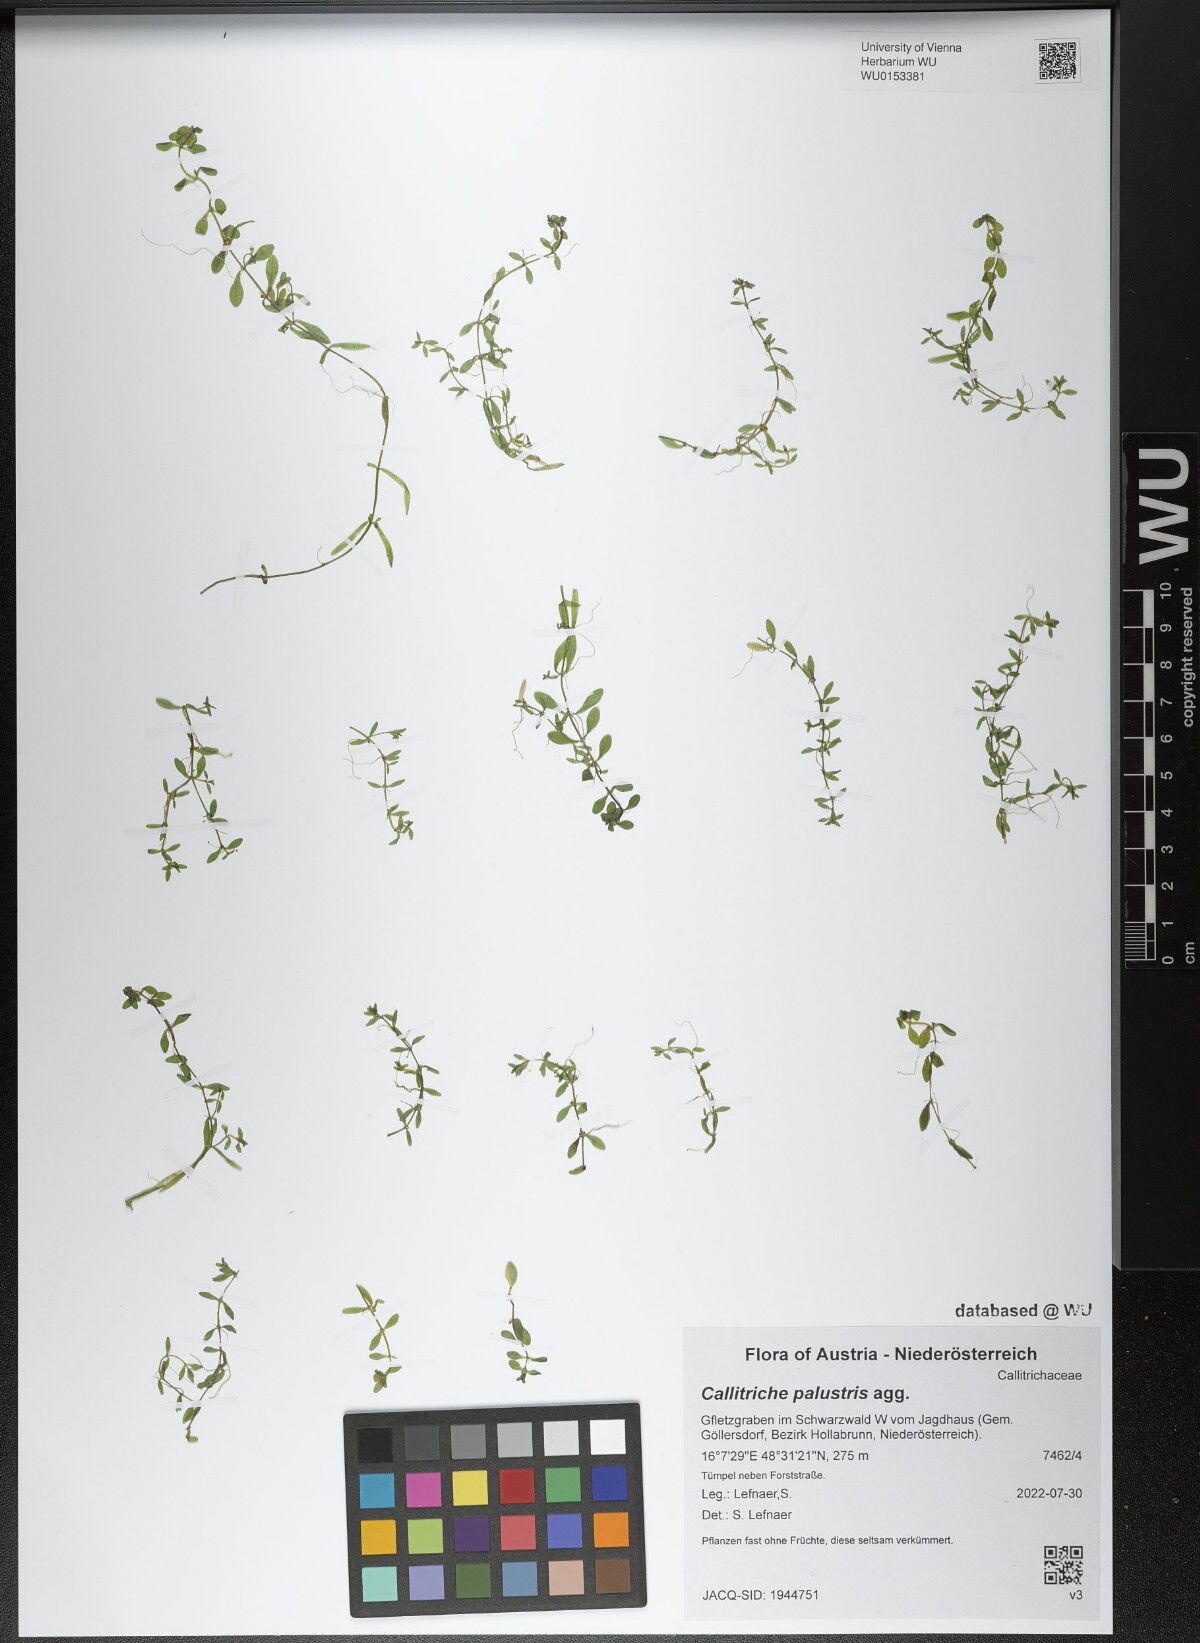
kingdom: Plantae
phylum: Tracheophyta
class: Magnoliopsida
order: Lamiales
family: Plantaginaceae
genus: Callitriche
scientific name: Callitriche palustris
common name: Spring water-starwort
